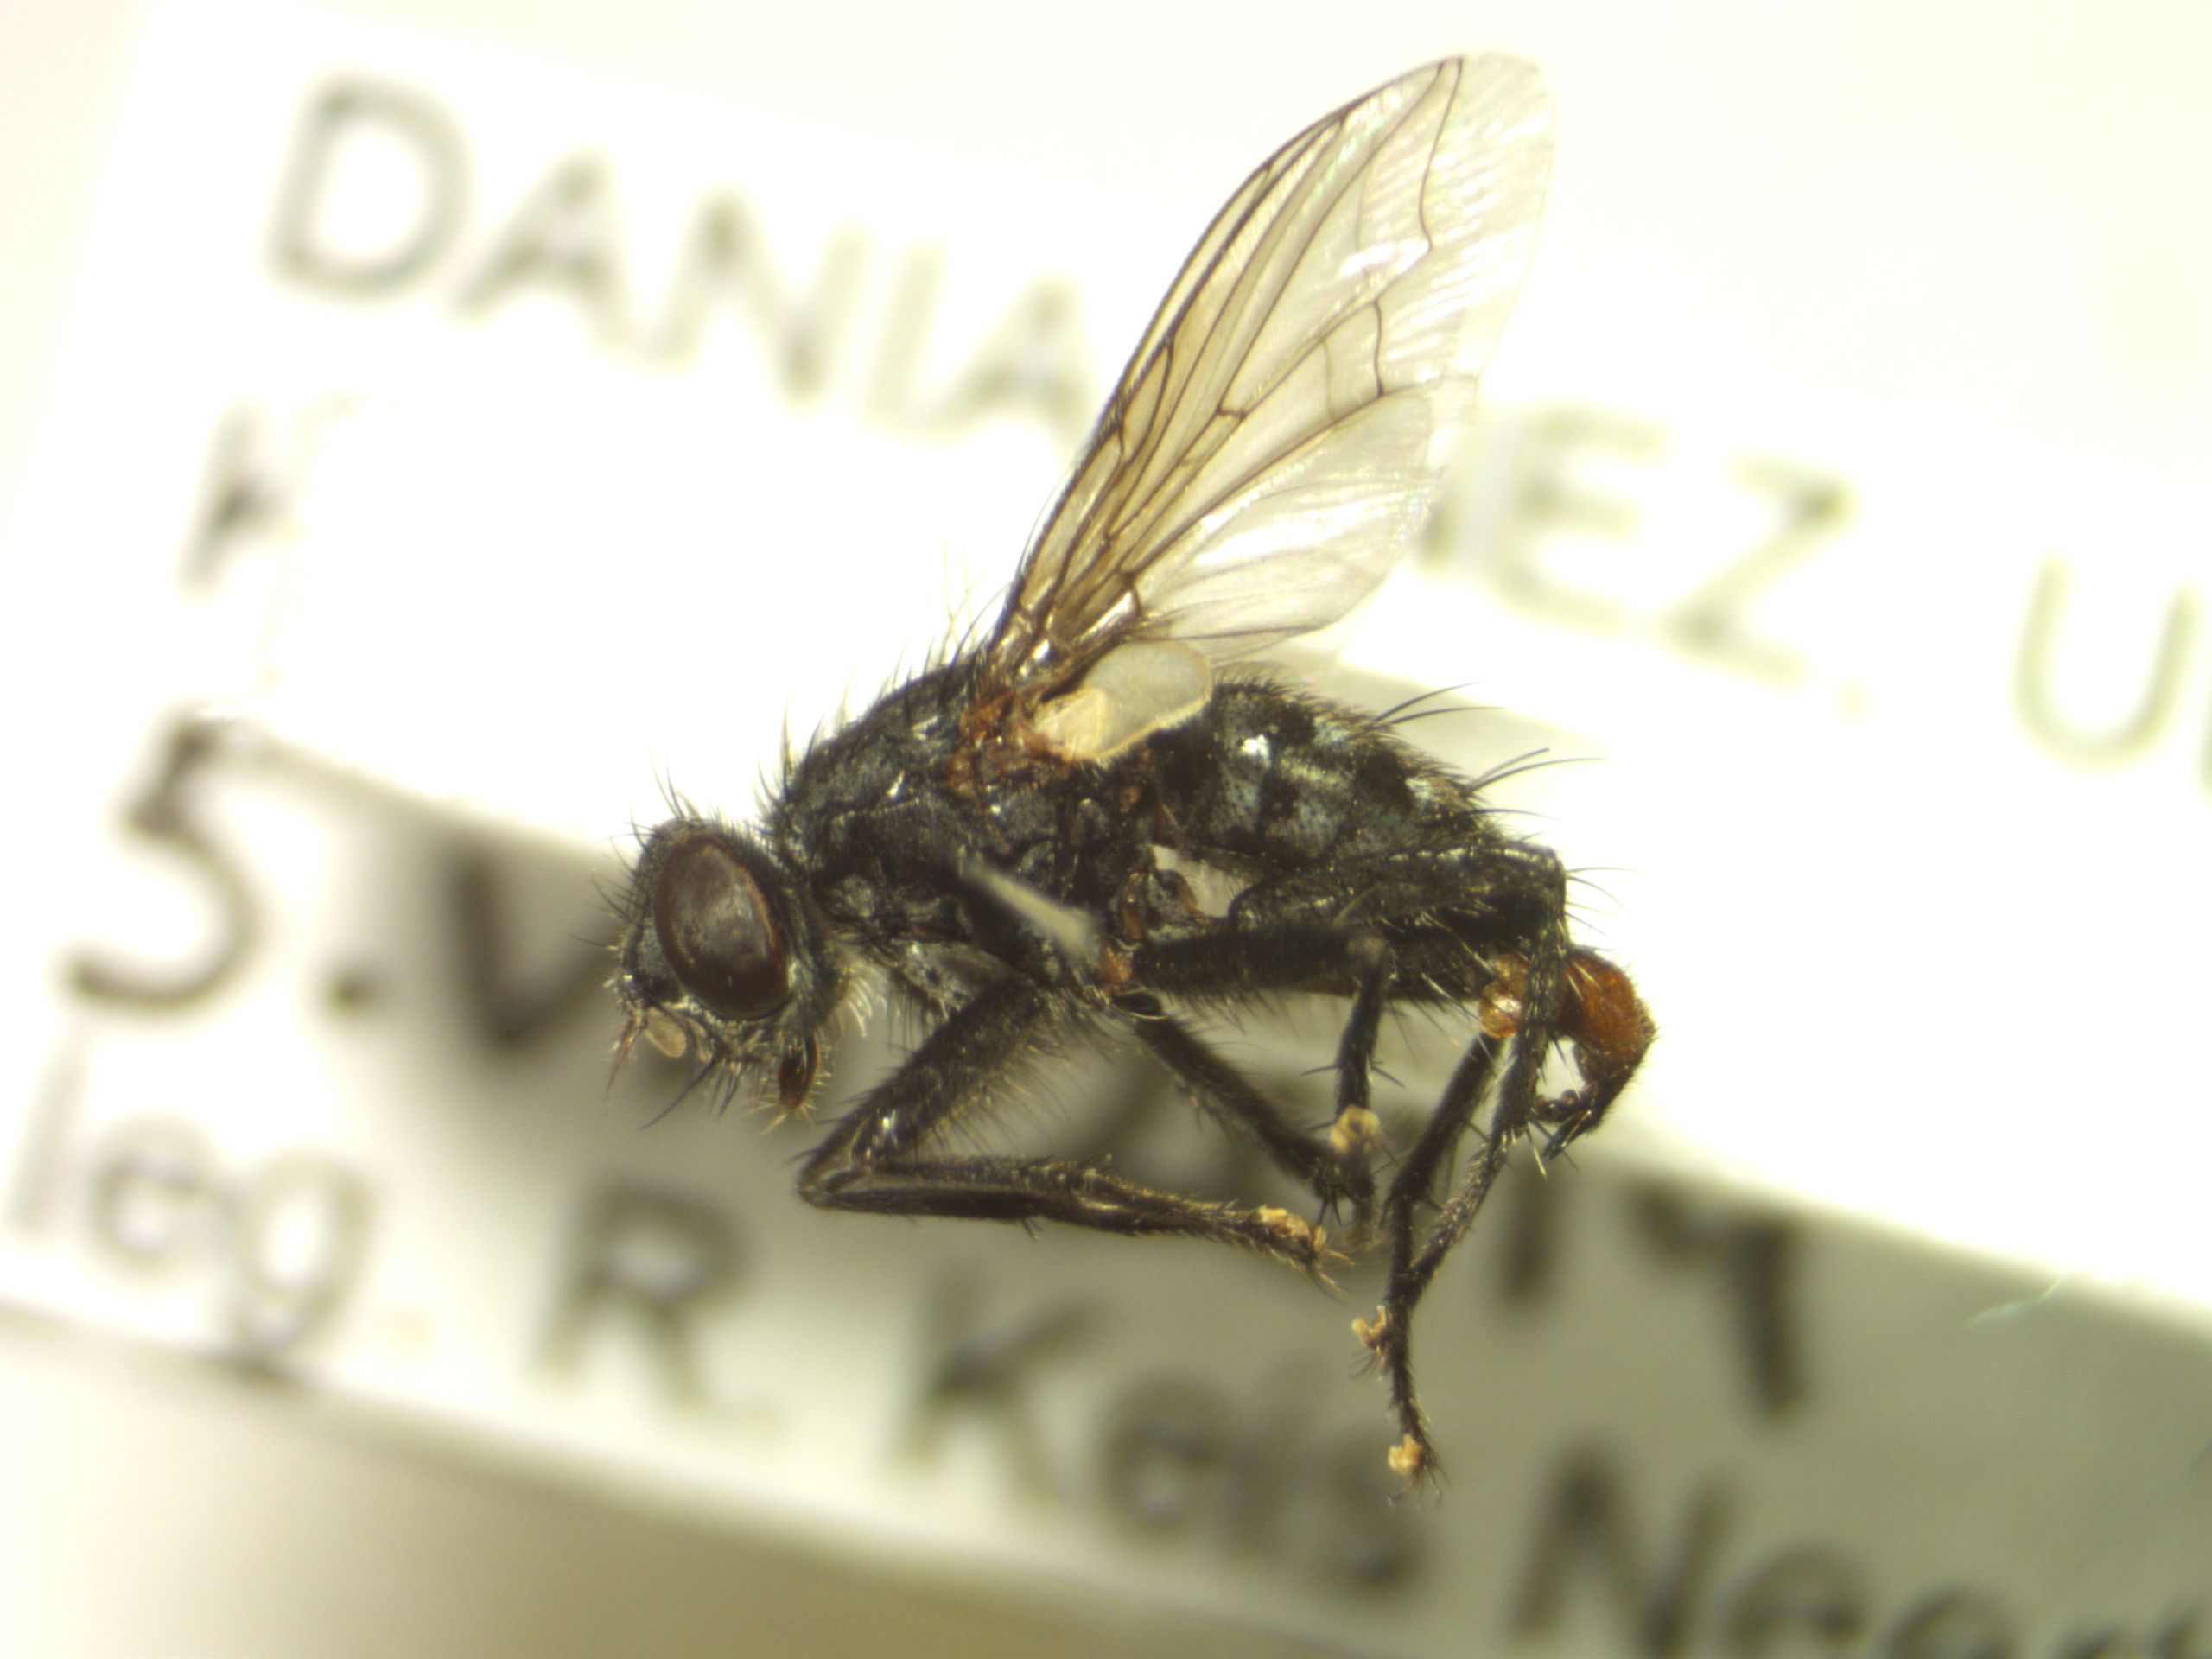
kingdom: Animalia
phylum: Arthropoda
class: Insecta
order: Diptera
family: Sarcophagidae
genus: Sarcophaga
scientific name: Sarcophaga haemorrhoa
